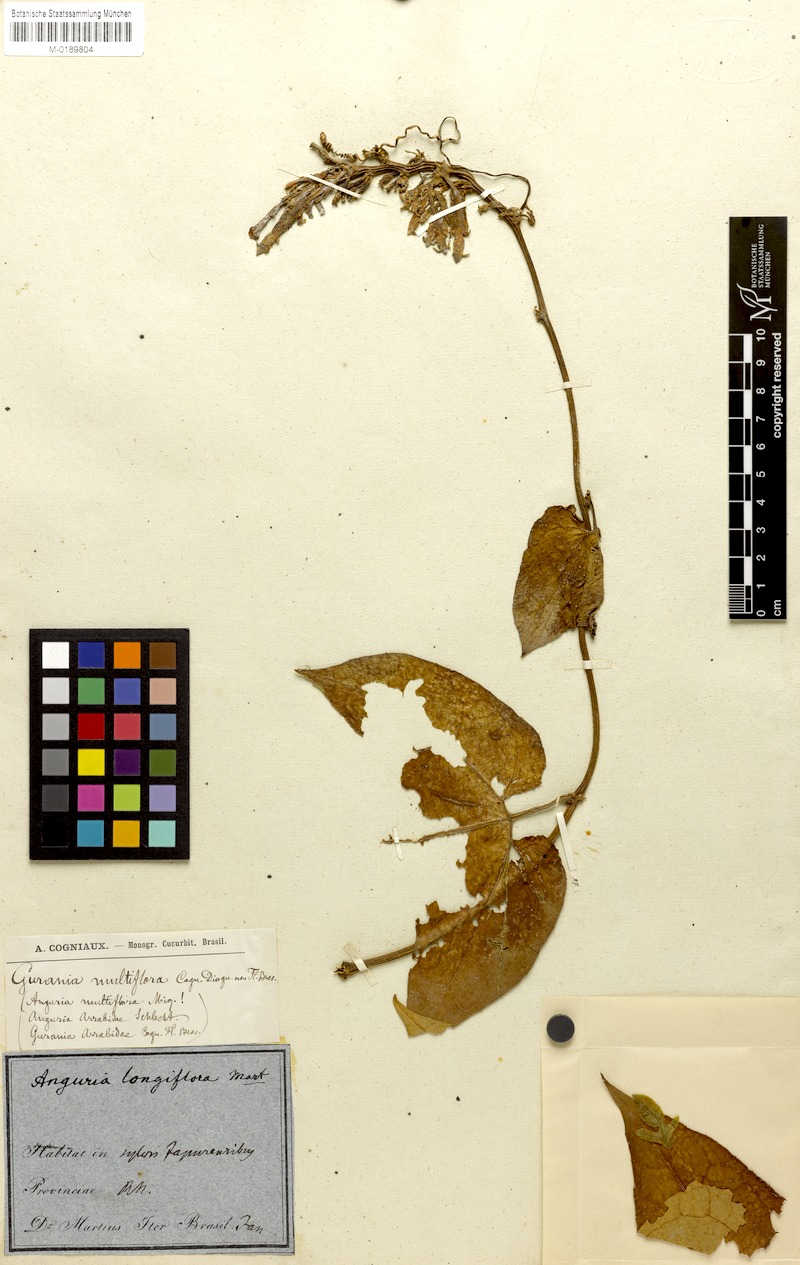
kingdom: Plantae
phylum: Tracheophyta
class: Magnoliopsida
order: Cucurbitales
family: Cucurbitaceae
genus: Gurania
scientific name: Gurania subumbellata
